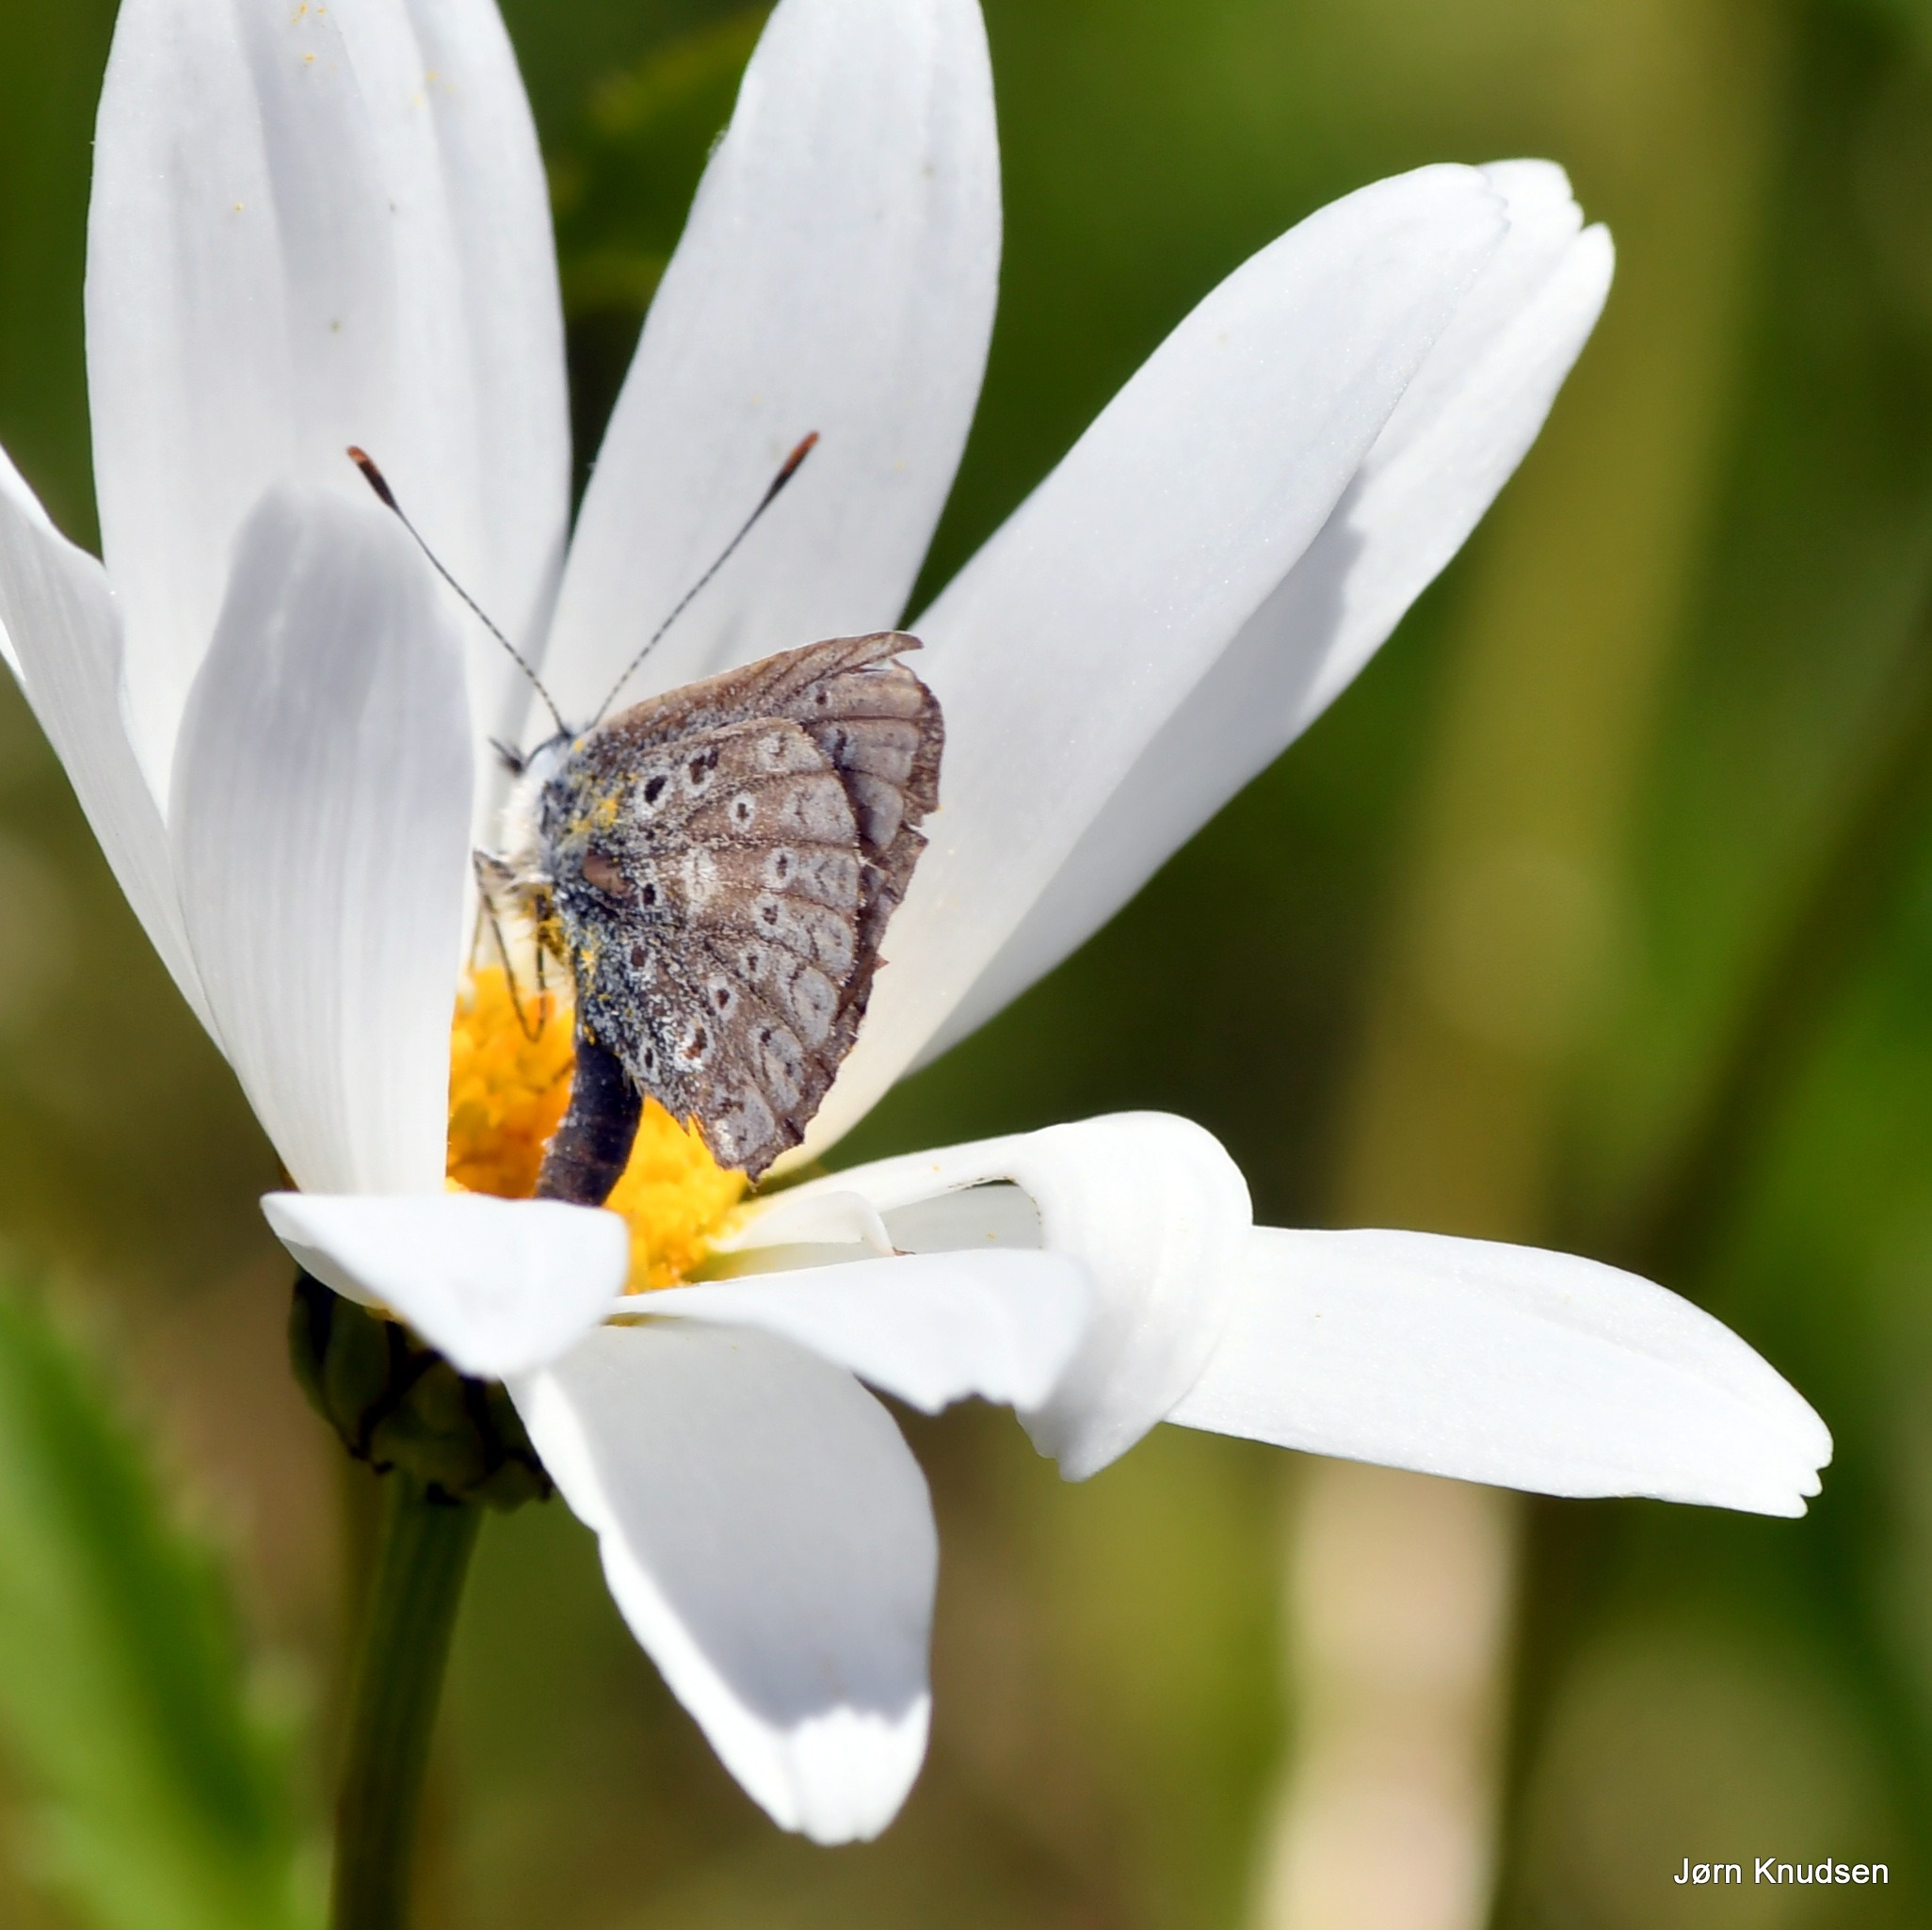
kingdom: Animalia
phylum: Arthropoda
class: Insecta
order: Lepidoptera
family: Lycaenidae
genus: Polyommatus
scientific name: Polyommatus icarus
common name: Almindelig blåfugl
